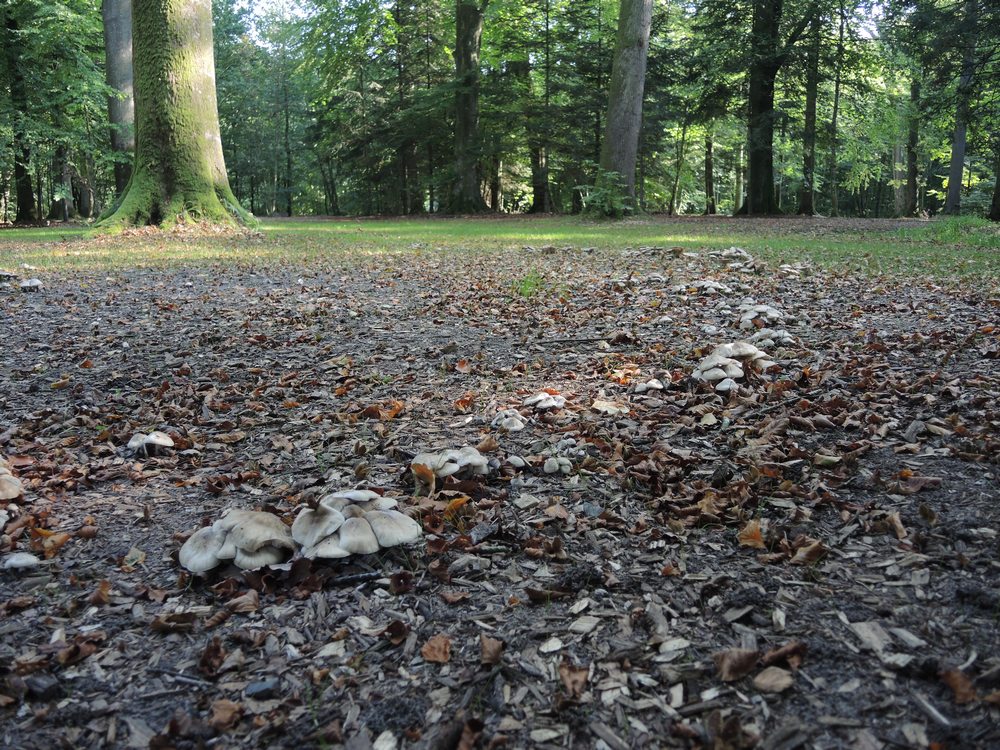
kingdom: Fungi
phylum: Basidiomycota
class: Agaricomycetes
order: Agaricales
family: Lyophyllaceae
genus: Lyophyllum
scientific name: Lyophyllum decastes
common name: Clustered domecap
